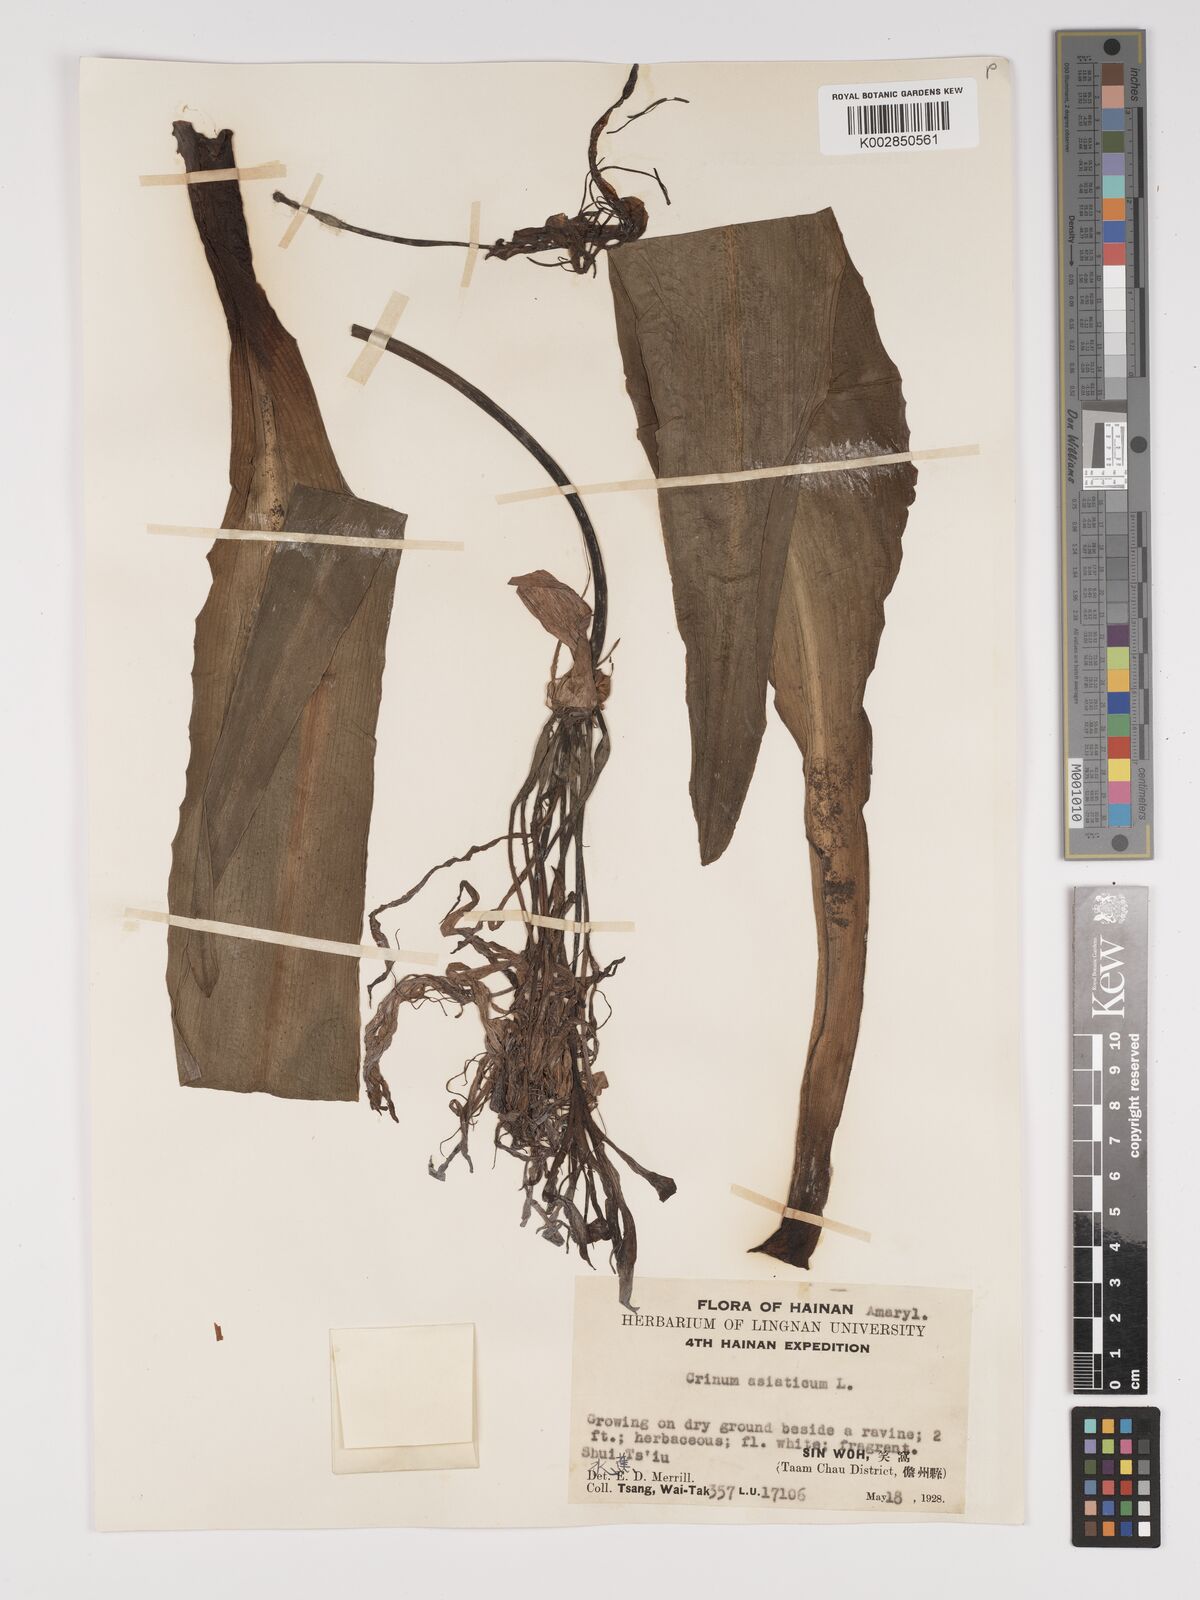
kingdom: Plantae
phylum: Tracheophyta
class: Liliopsida
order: Asparagales
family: Amaryllidaceae
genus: Crinum
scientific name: Crinum asiaticum
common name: Poisonbulb
